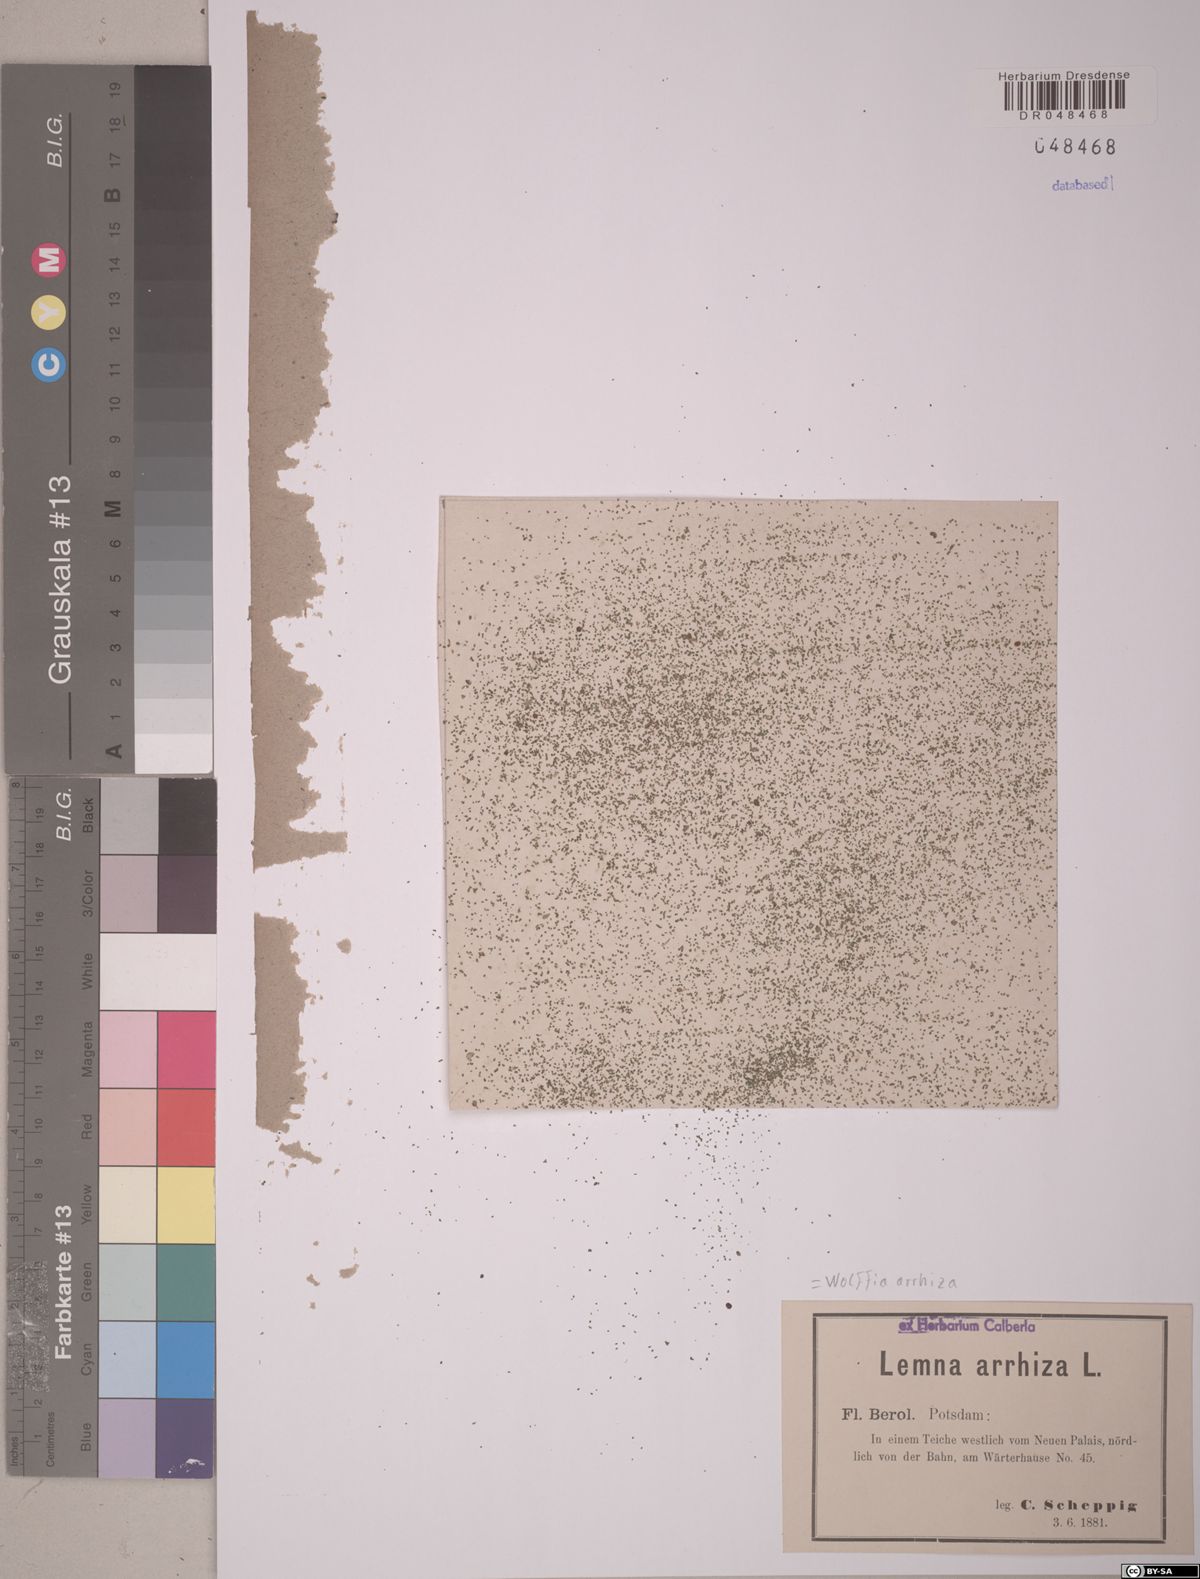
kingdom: Plantae
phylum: Tracheophyta
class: Liliopsida
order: Alismatales
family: Araceae
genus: Wolffia
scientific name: Wolffia arrhiza
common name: Rootless duckweed
